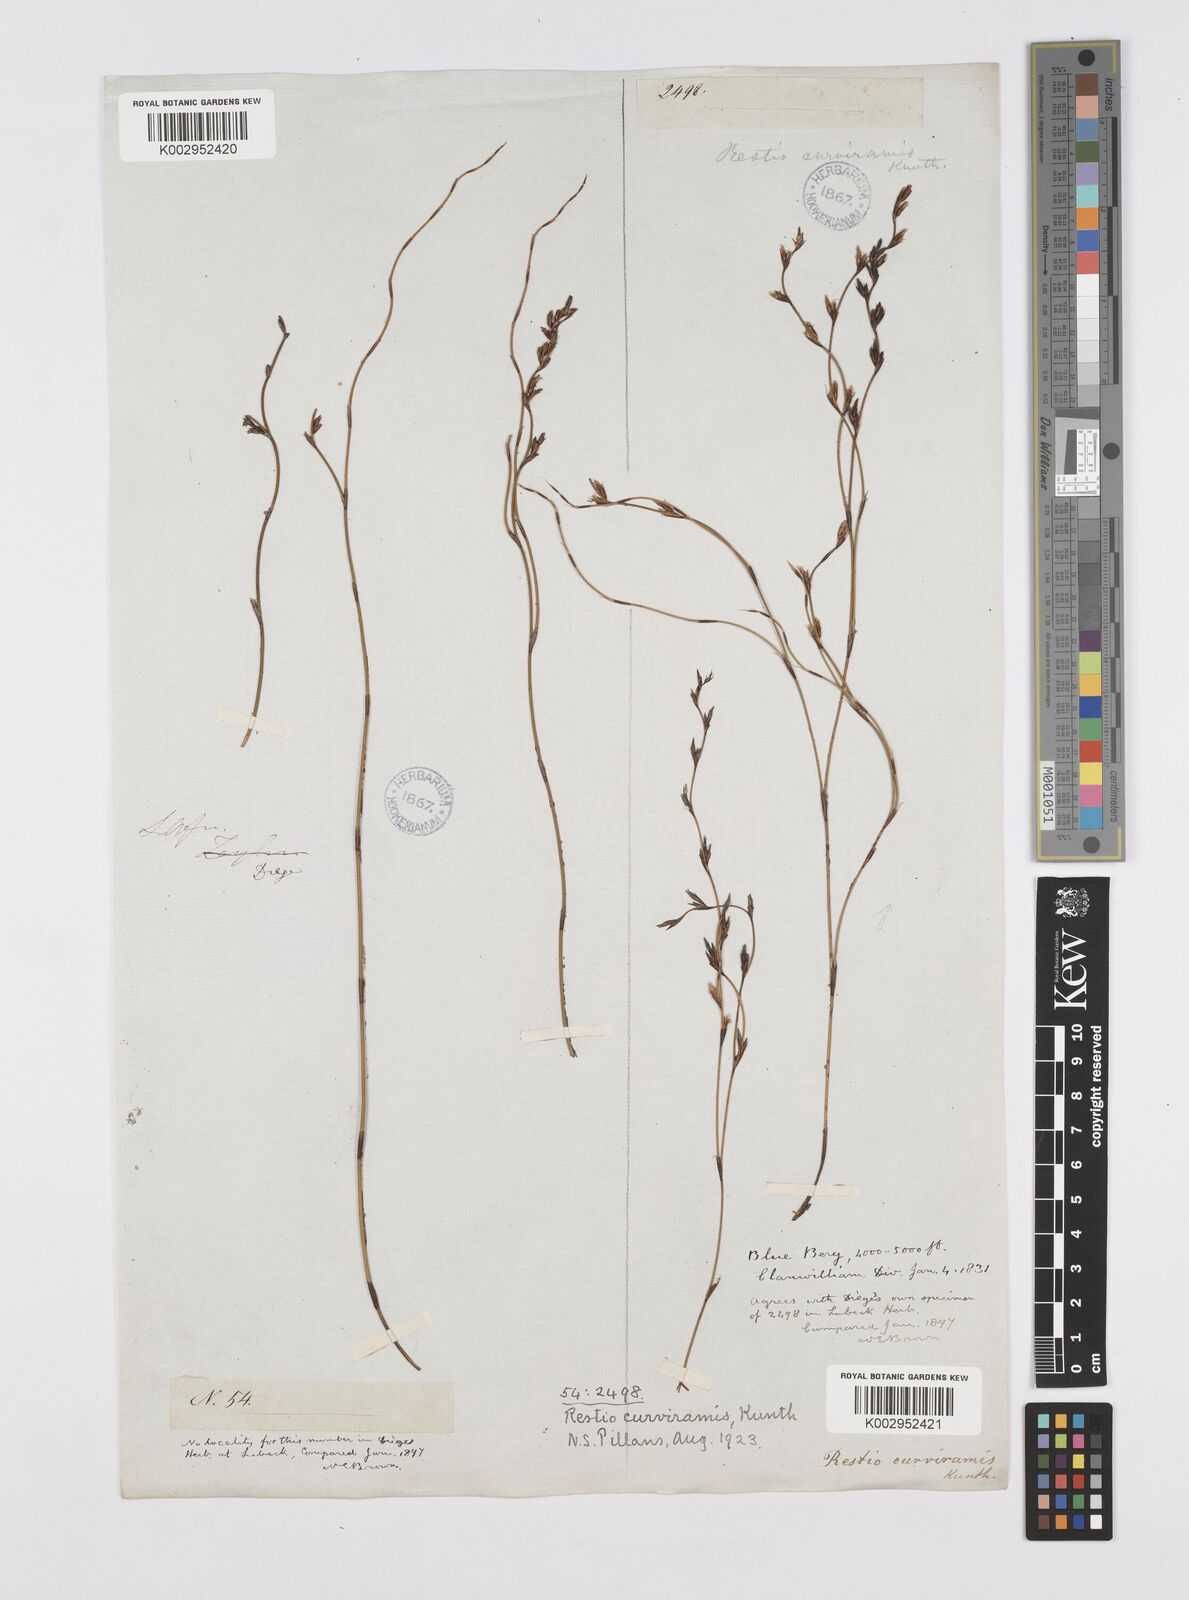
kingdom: Plantae
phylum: Tracheophyta
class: Liliopsida
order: Poales
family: Restionaceae
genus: Restio
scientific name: Restio curviramis
